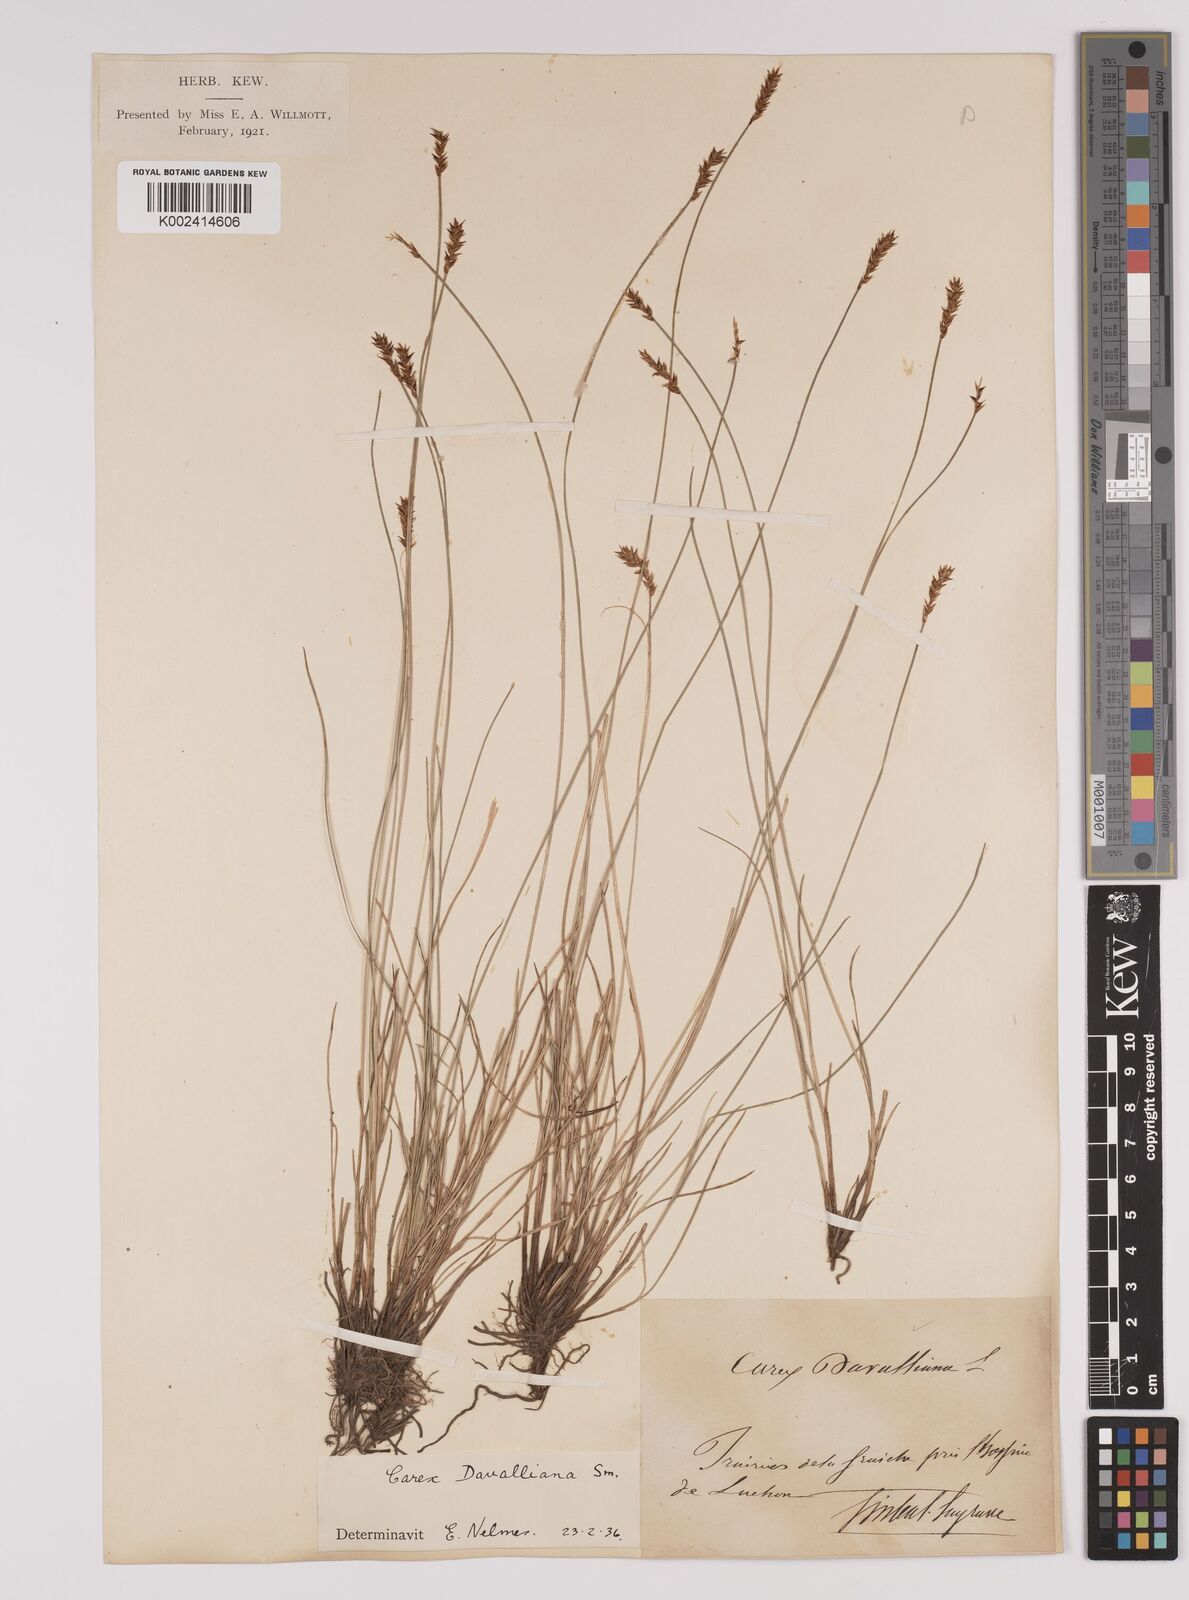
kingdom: Plantae
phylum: Tracheophyta
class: Liliopsida
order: Poales
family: Cyperaceae
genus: Carex
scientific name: Carex davalliana
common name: Davall's sedge
